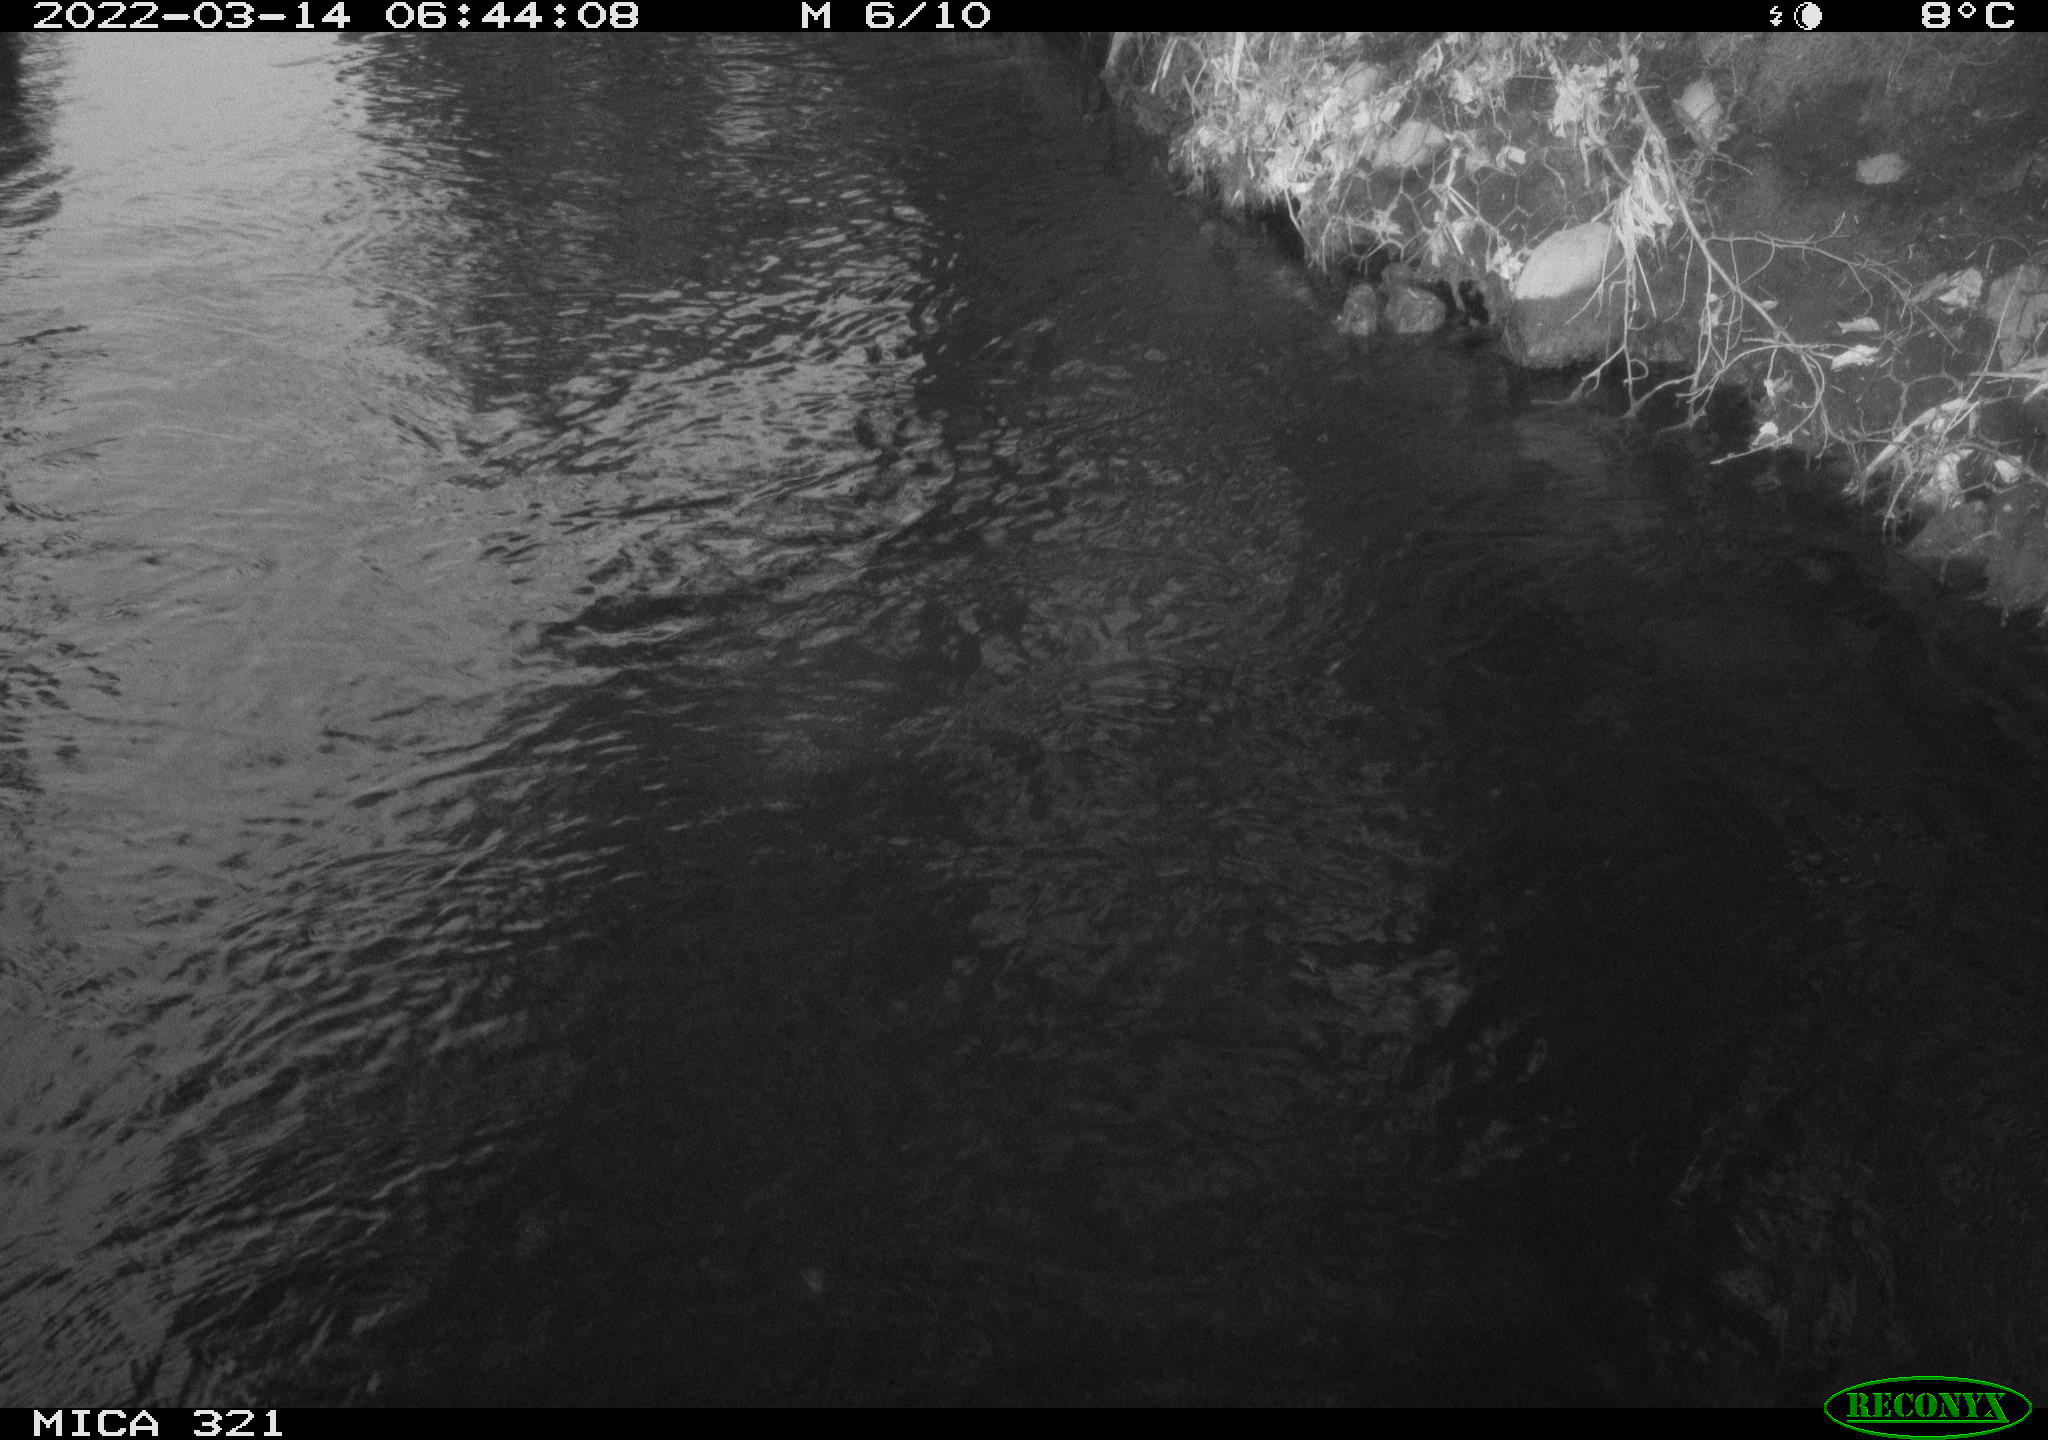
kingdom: Animalia
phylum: Chordata
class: Aves
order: Suliformes
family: Phalacrocoracidae
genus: Phalacrocorax
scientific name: Phalacrocorax carbo
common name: Great cormorant
